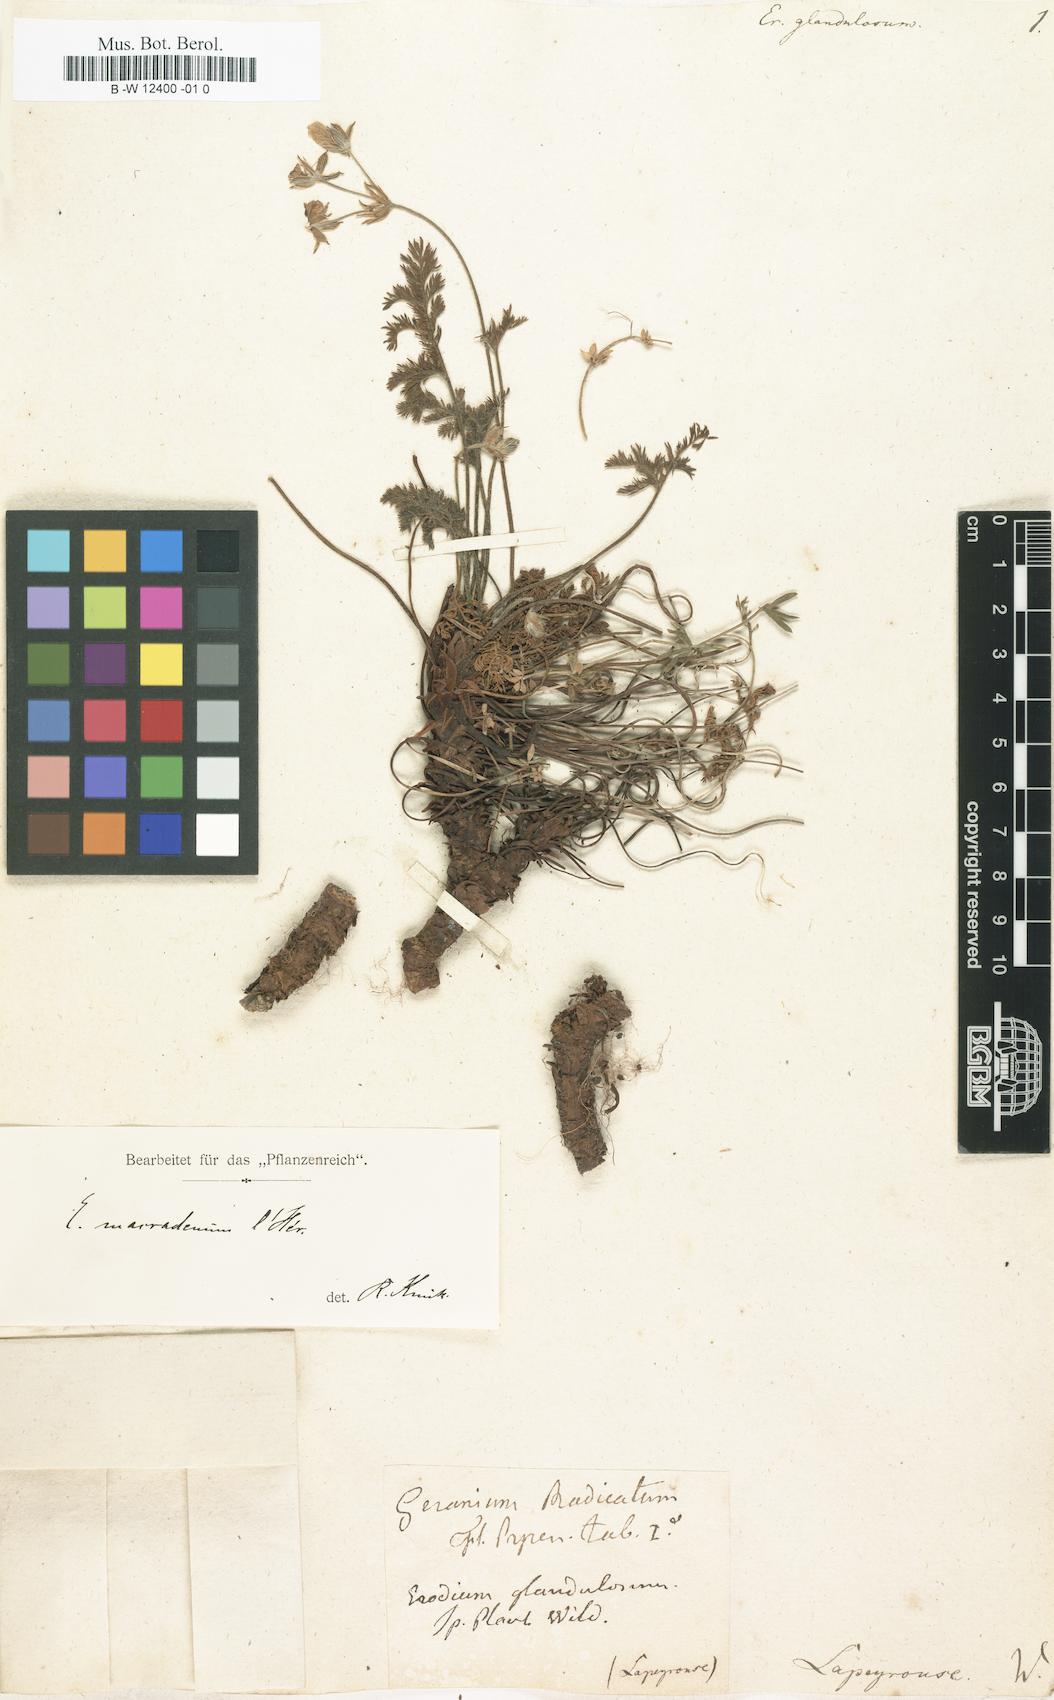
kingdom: Plantae
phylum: Tracheophyta
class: Magnoliopsida
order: Geraniales
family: Geraniaceae
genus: Erodium
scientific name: Erodium glandulosum
